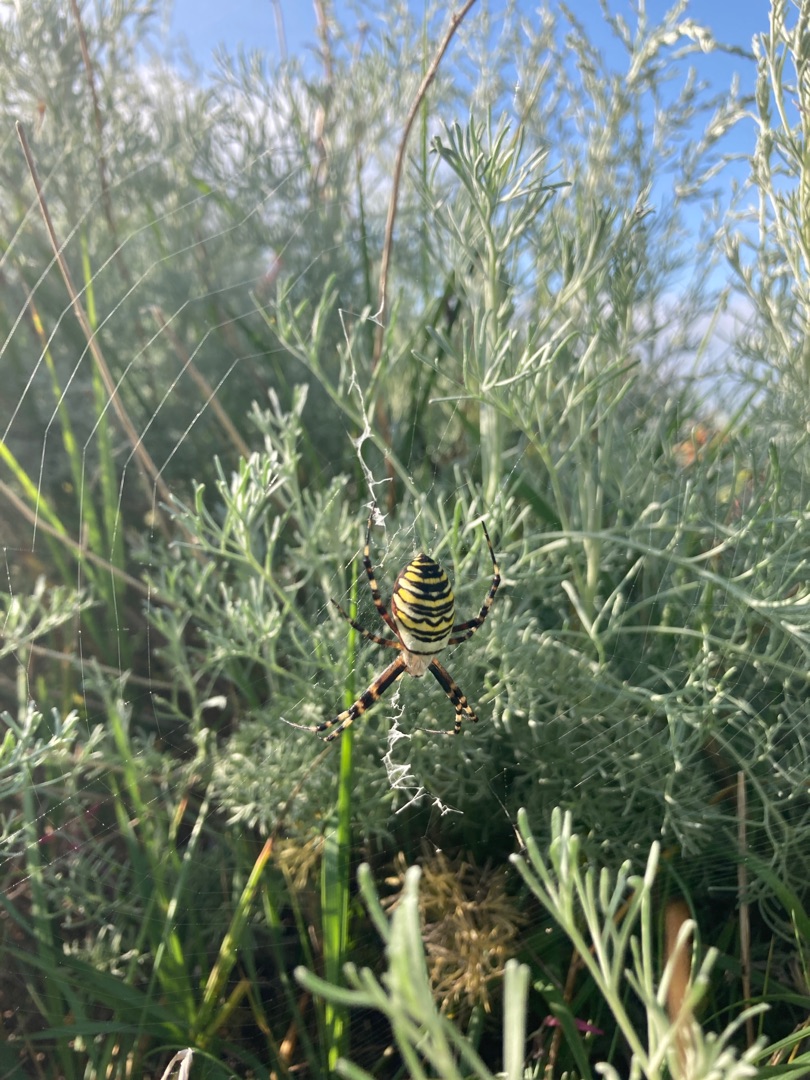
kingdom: Animalia
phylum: Arthropoda
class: Arachnida
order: Araneae
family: Araneidae
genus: Argiope
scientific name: Argiope bruennichi
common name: Hvepseedderkop
